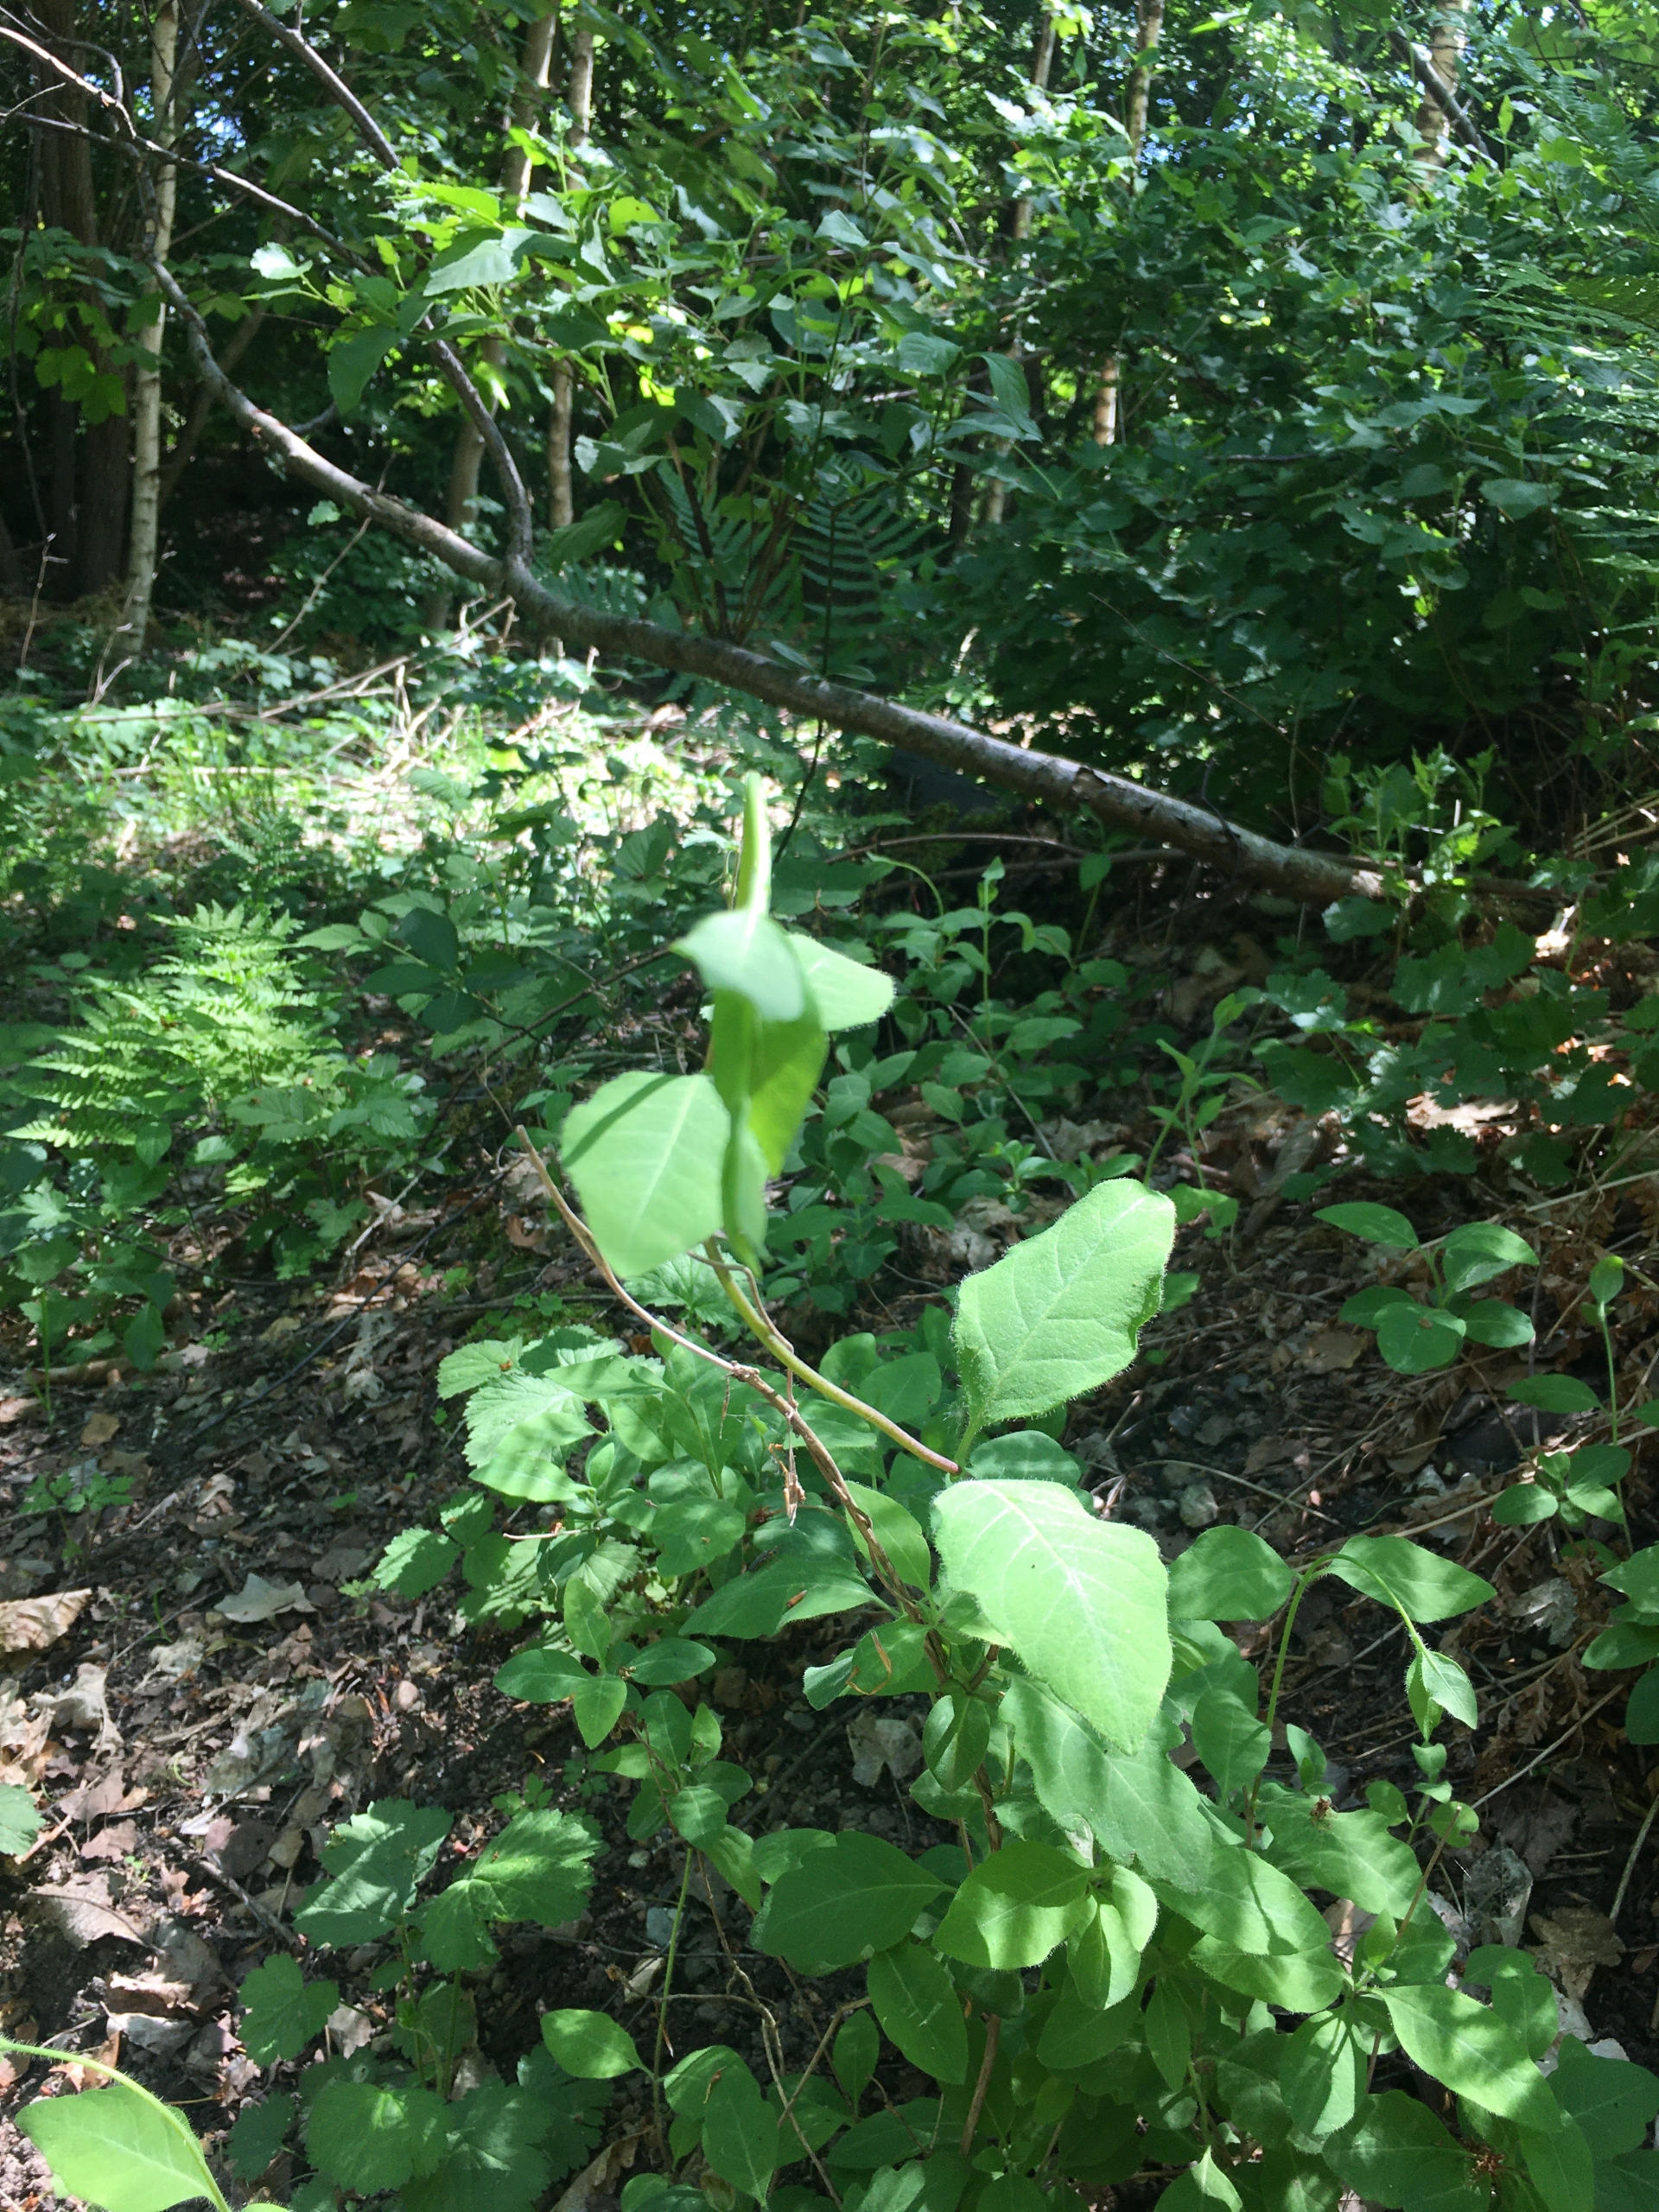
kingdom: Plantae
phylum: Tracheophyta
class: Magnoliopsida
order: Dipsacales
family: Caprifoliaceae
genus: Lonicera
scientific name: Lonicera periclymenum
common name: Almindelig gedeblad
